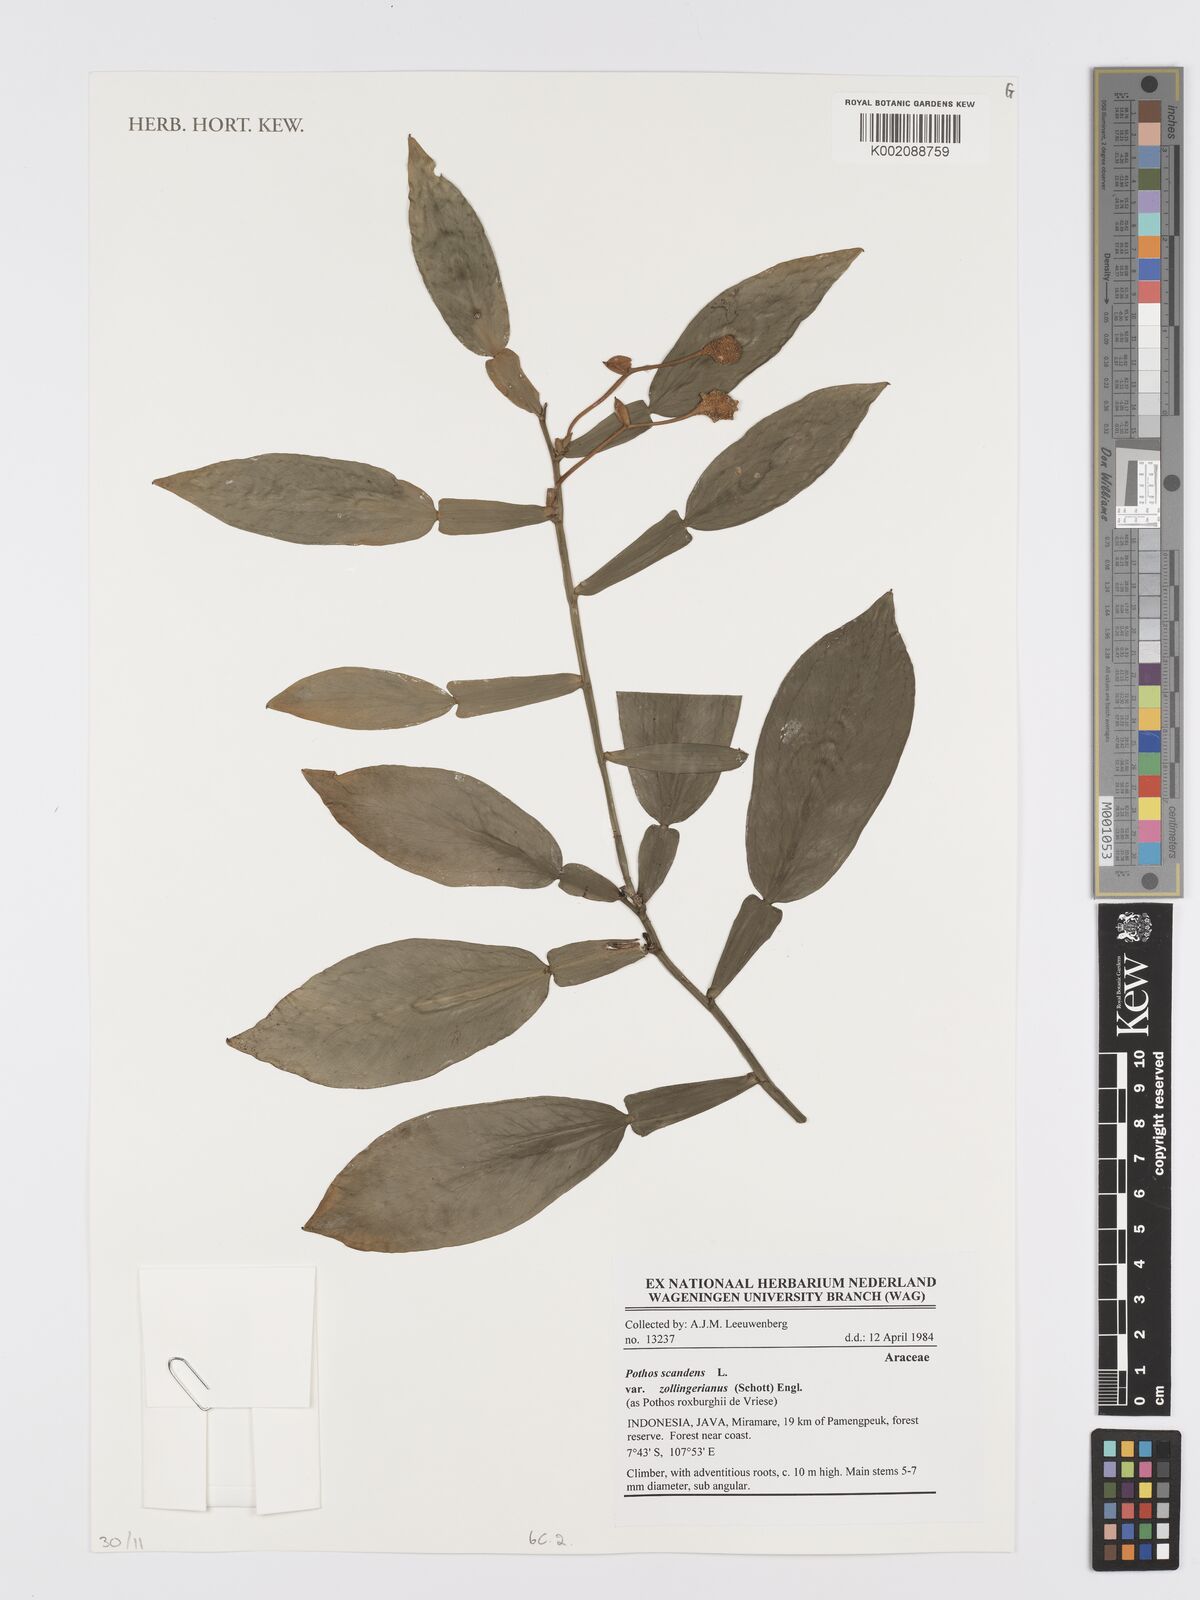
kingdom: Plantae
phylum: Tracheophyta
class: Liliopsida
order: Alismatales
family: Araceae
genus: Pothos
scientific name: Pothos scandens
